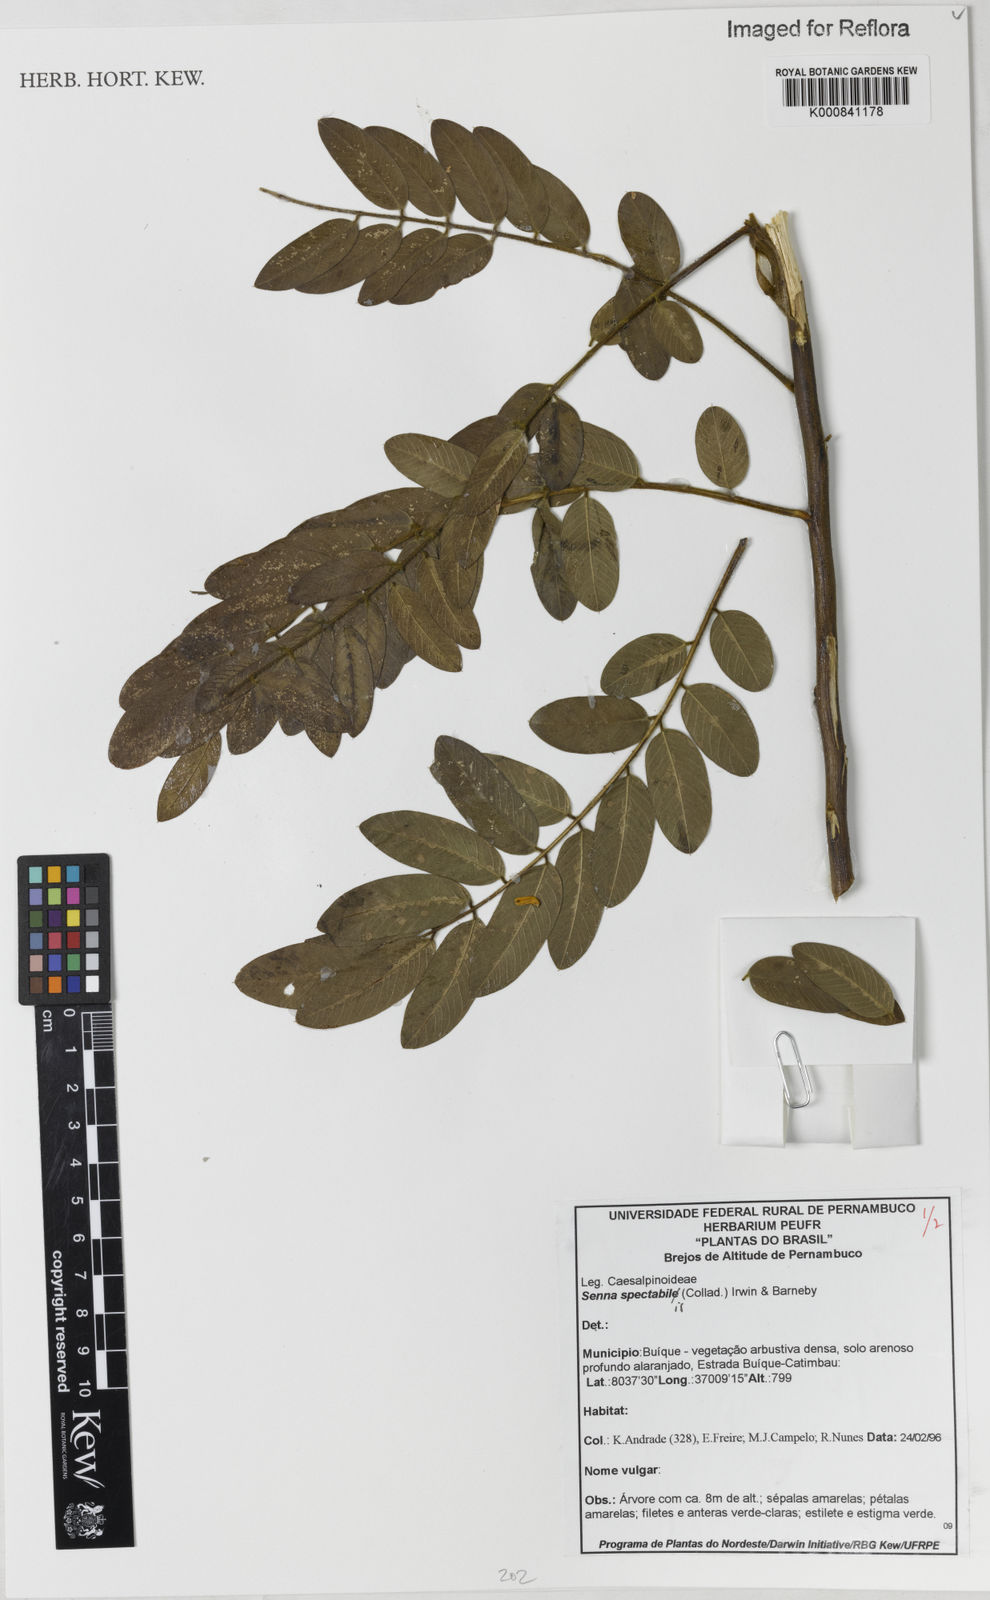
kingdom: Plantae
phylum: Tracheophyta
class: Magnoliopsida
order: Fabales
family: Fabaceae
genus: Senna
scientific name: Senna spectabilis
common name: Casia amarilla
